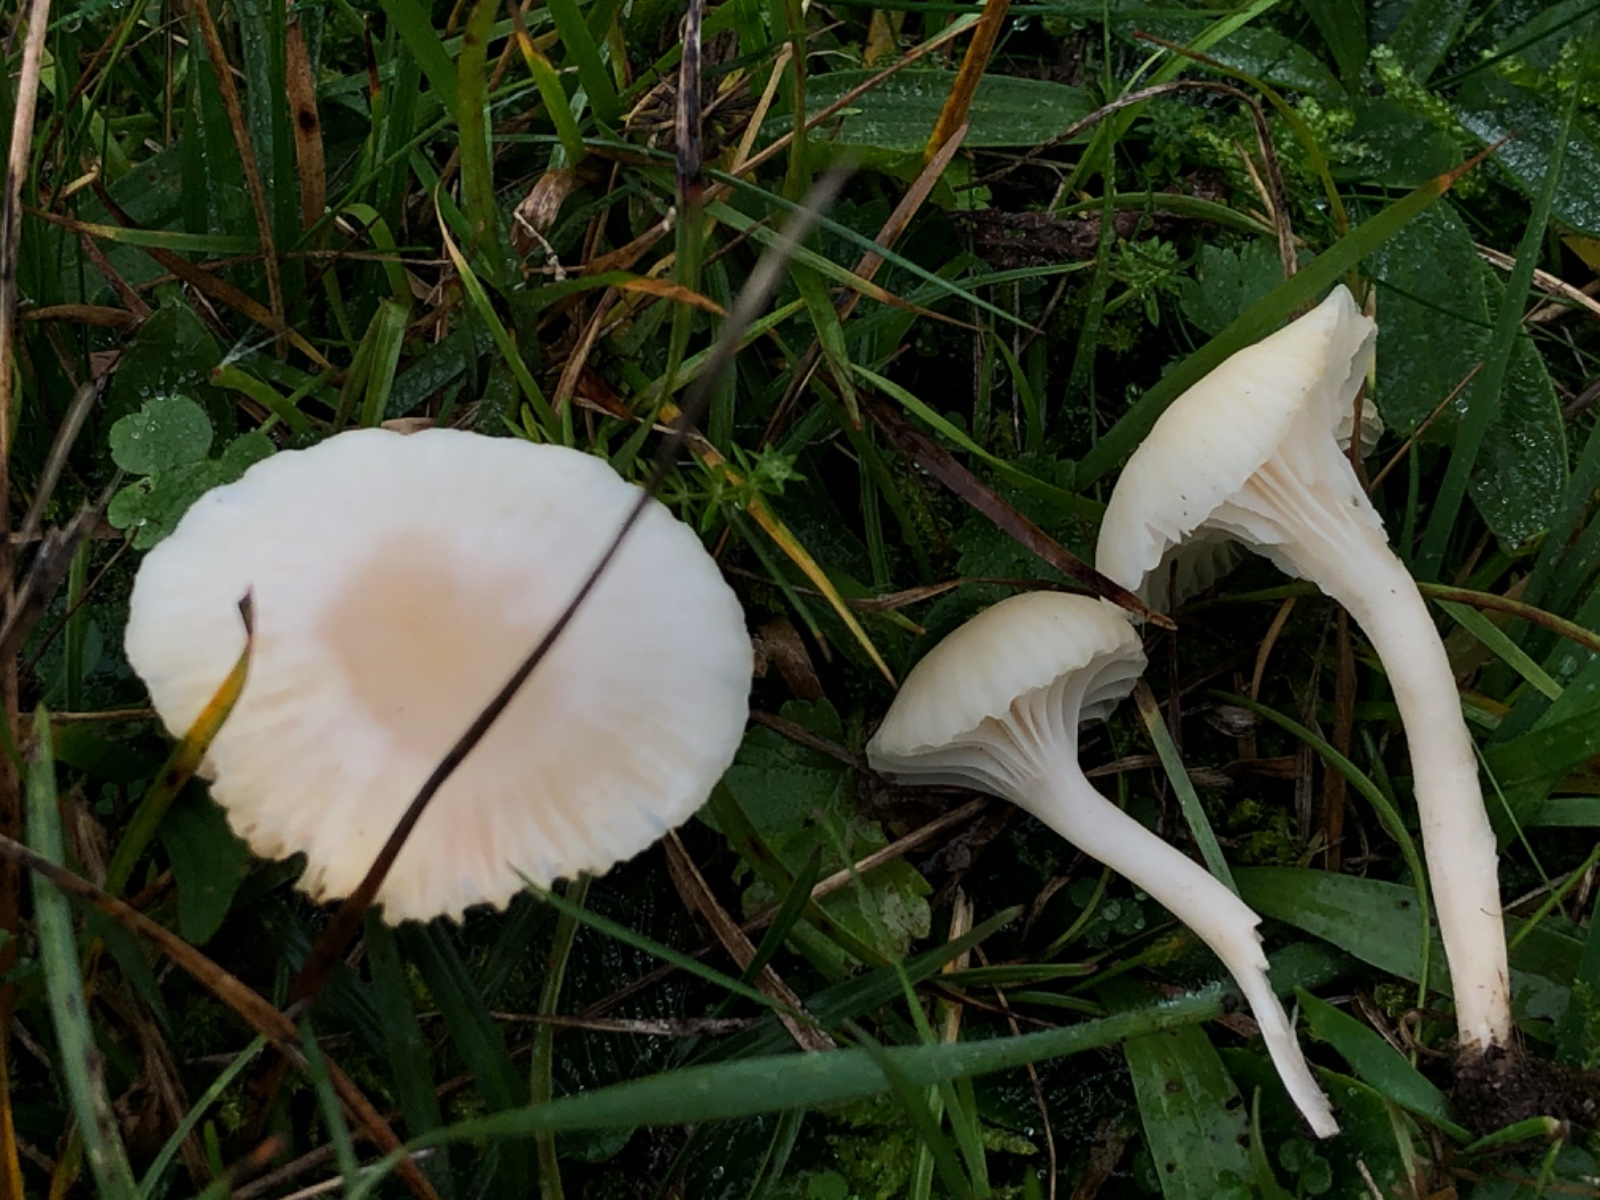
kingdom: Fungi
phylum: Basidiomycota
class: Agaricomycetes
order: Agaricales
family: Hygrophoraceae
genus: Cuphophyllus
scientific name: Cuphophyllus
